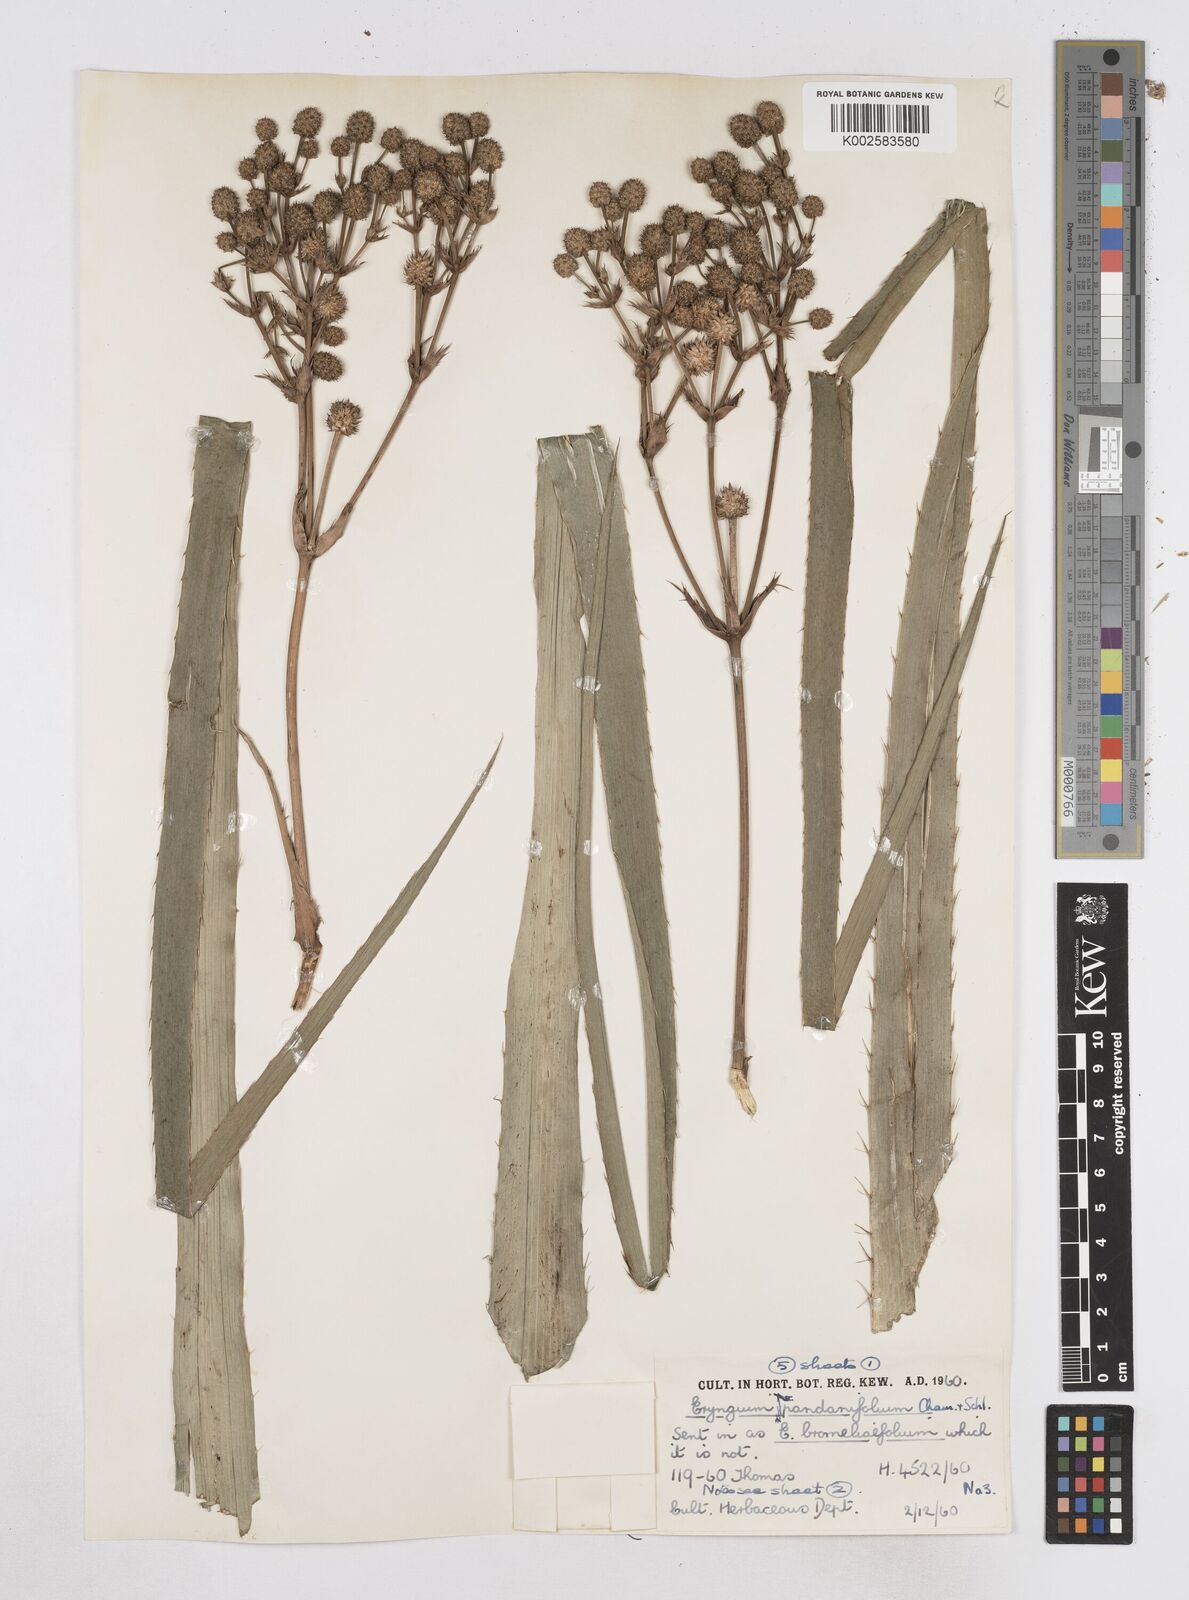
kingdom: Plantae
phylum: Tracheophyta
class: Magnoliopsida
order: Apiales
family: Apiaceae
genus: Eryngium
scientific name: Eryngium pandanifolium
